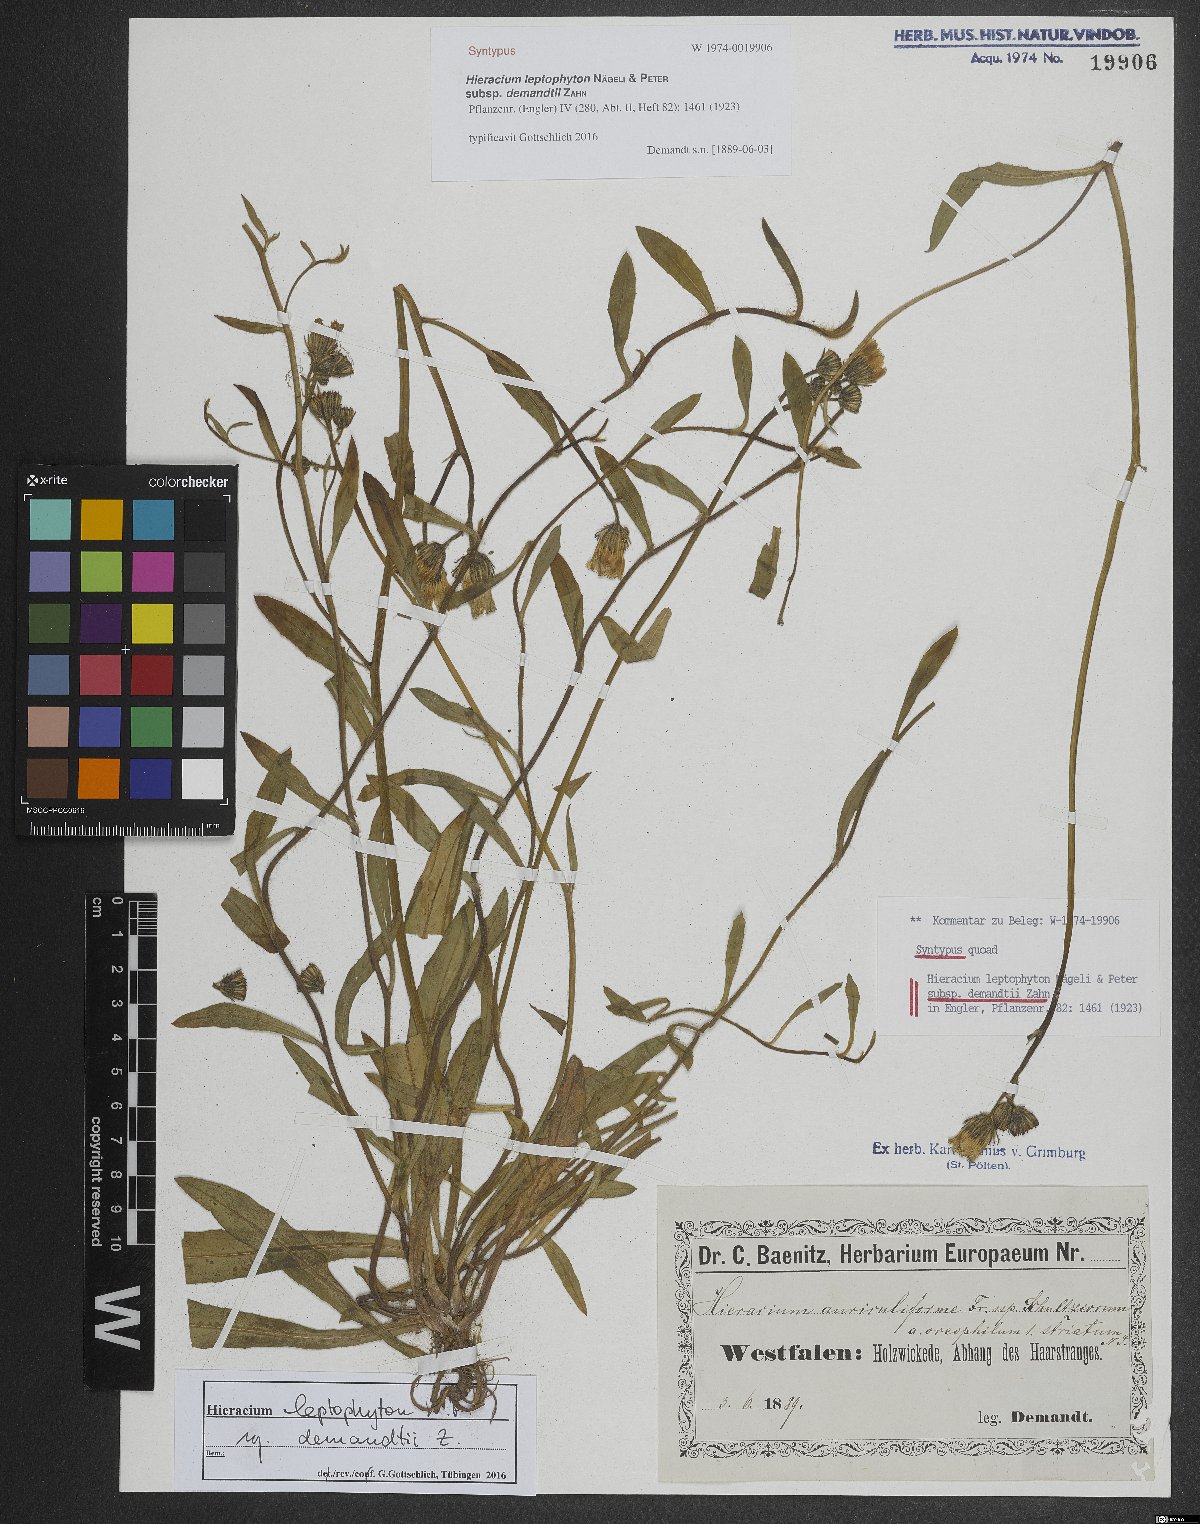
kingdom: Plantae
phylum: Tracheophyta
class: Magnoliopsida
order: Asterales
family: Asteraceae
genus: Pilosella
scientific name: Pilosella leptophyton
